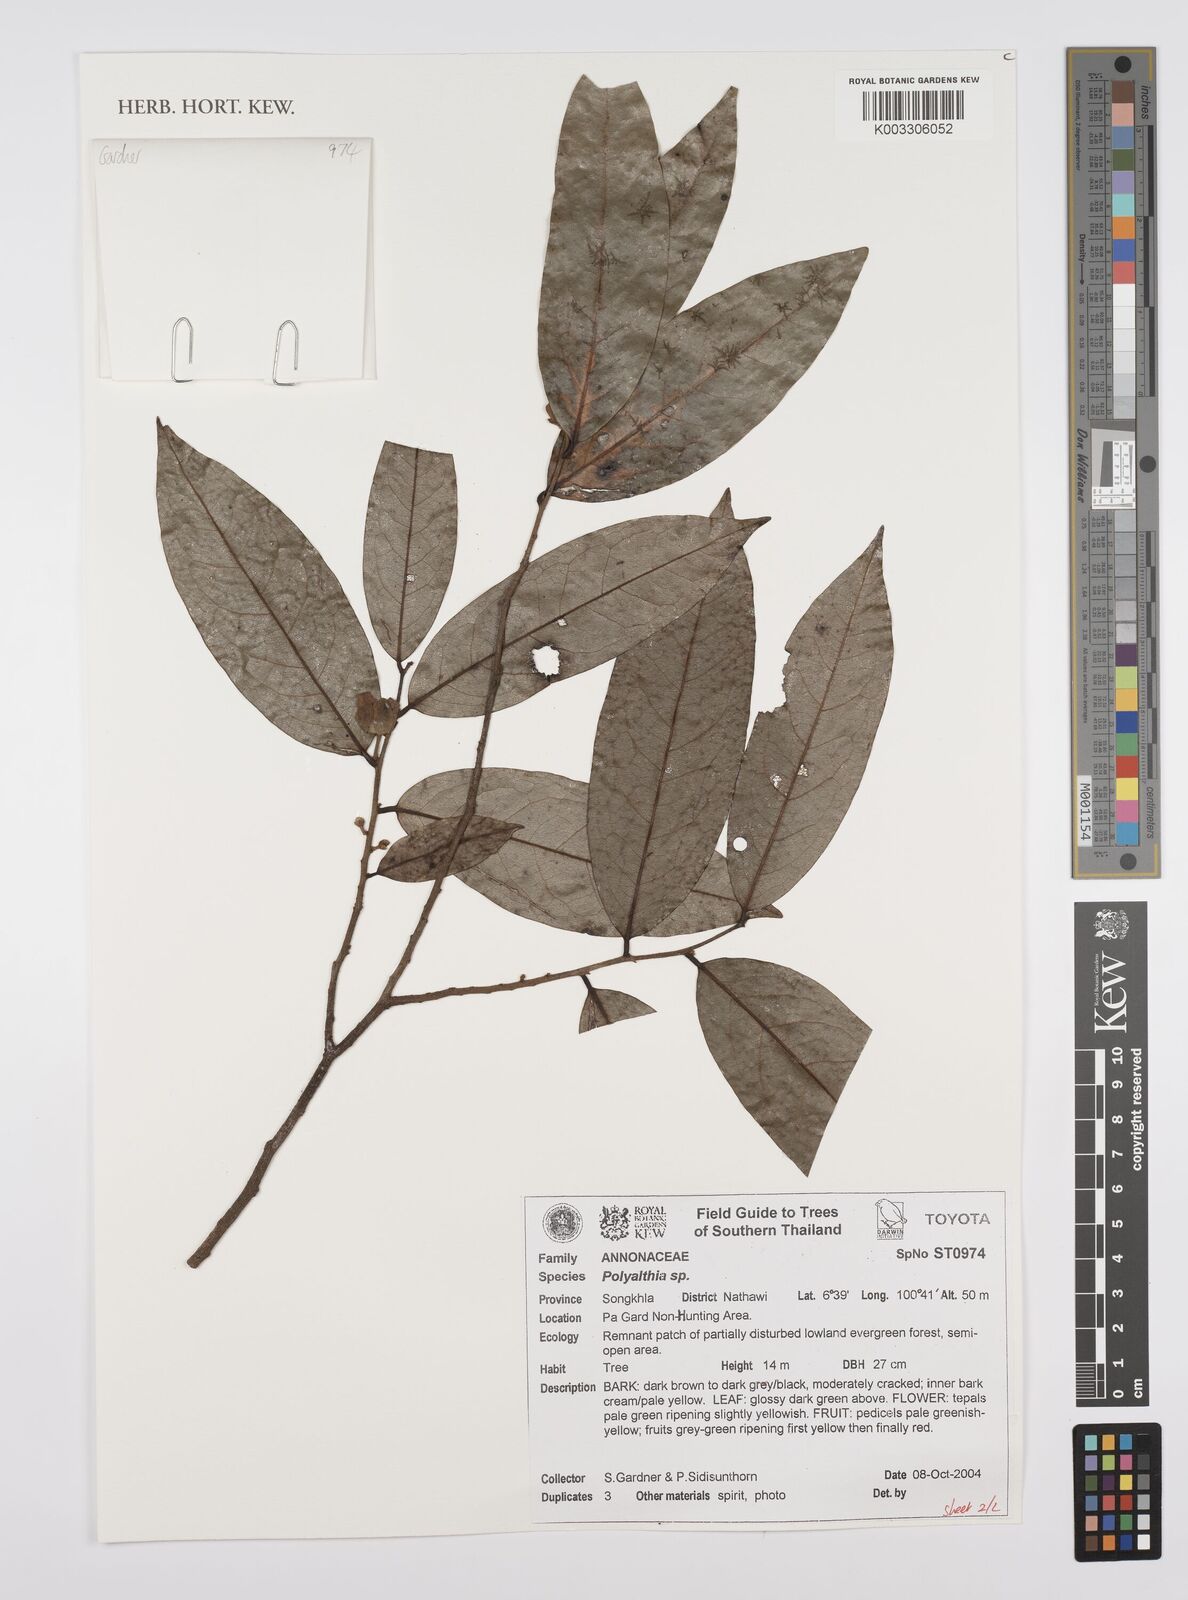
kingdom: Plantae
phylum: Tracheophyta
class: Magnoliopsida
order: Magnoliales
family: Annonaceae
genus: Huberantha
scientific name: Huberantha
